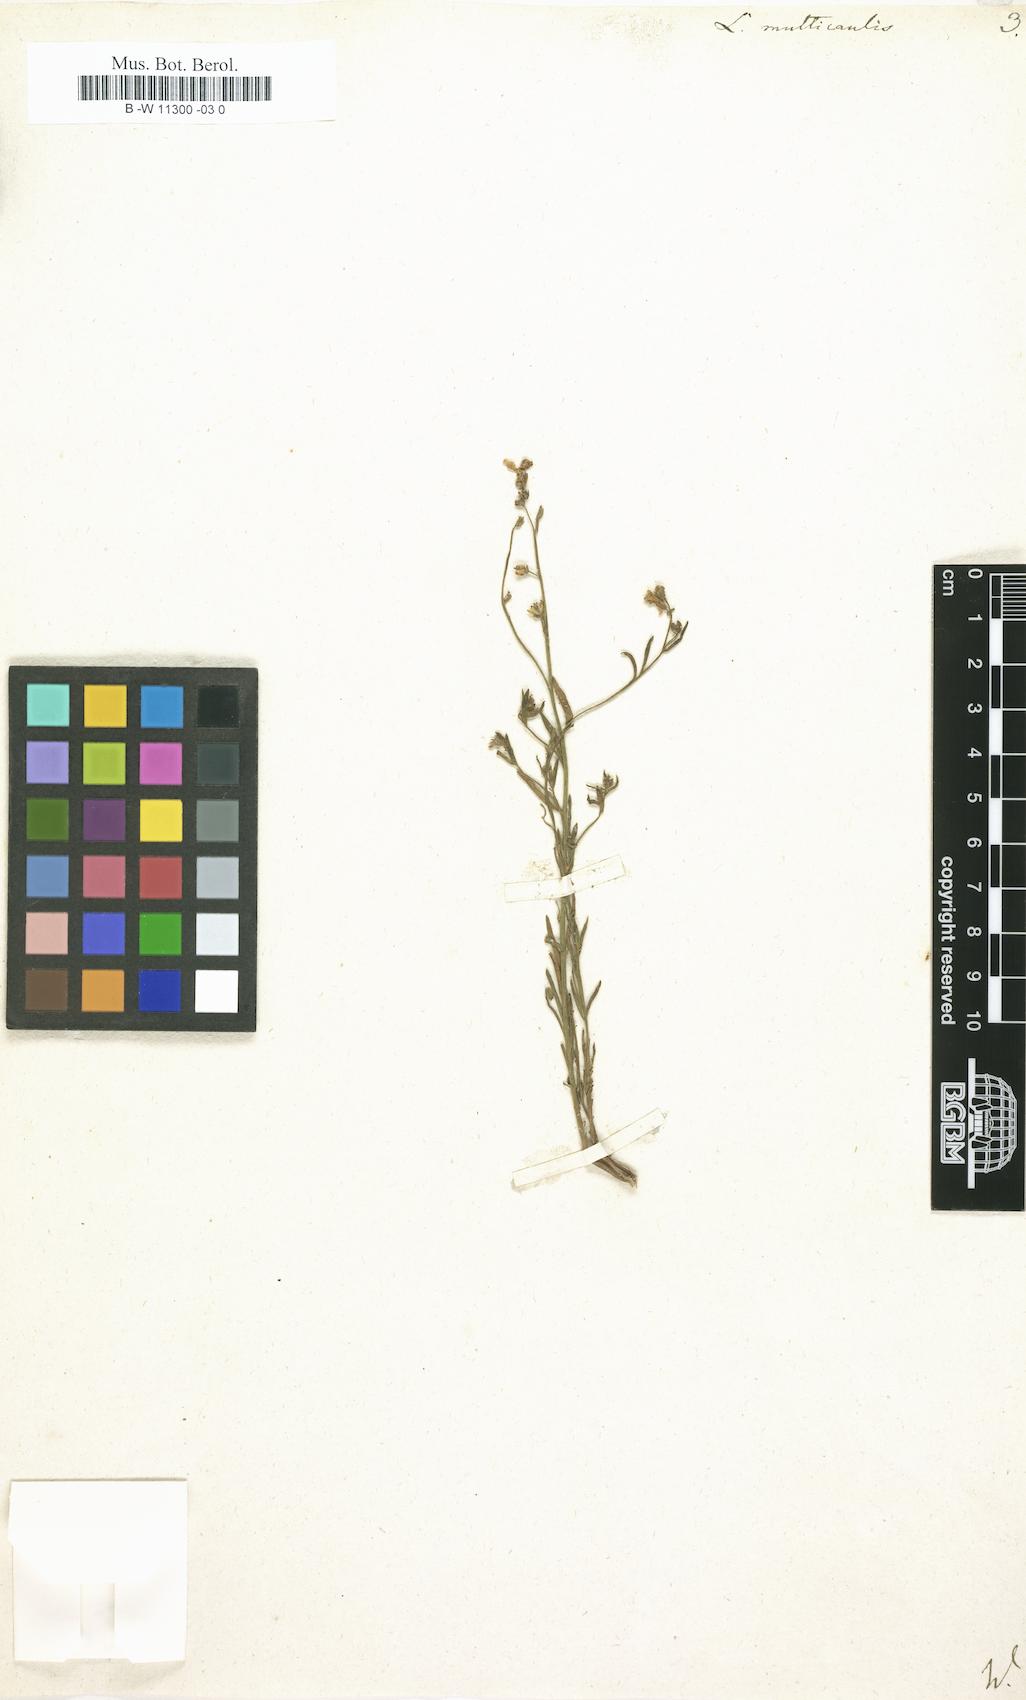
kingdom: Plantae
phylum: Tracheophyta
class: Magnoliopsida
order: Lamiales
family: Plantaginaceae
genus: Linaria
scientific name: Linaria multicaulis
